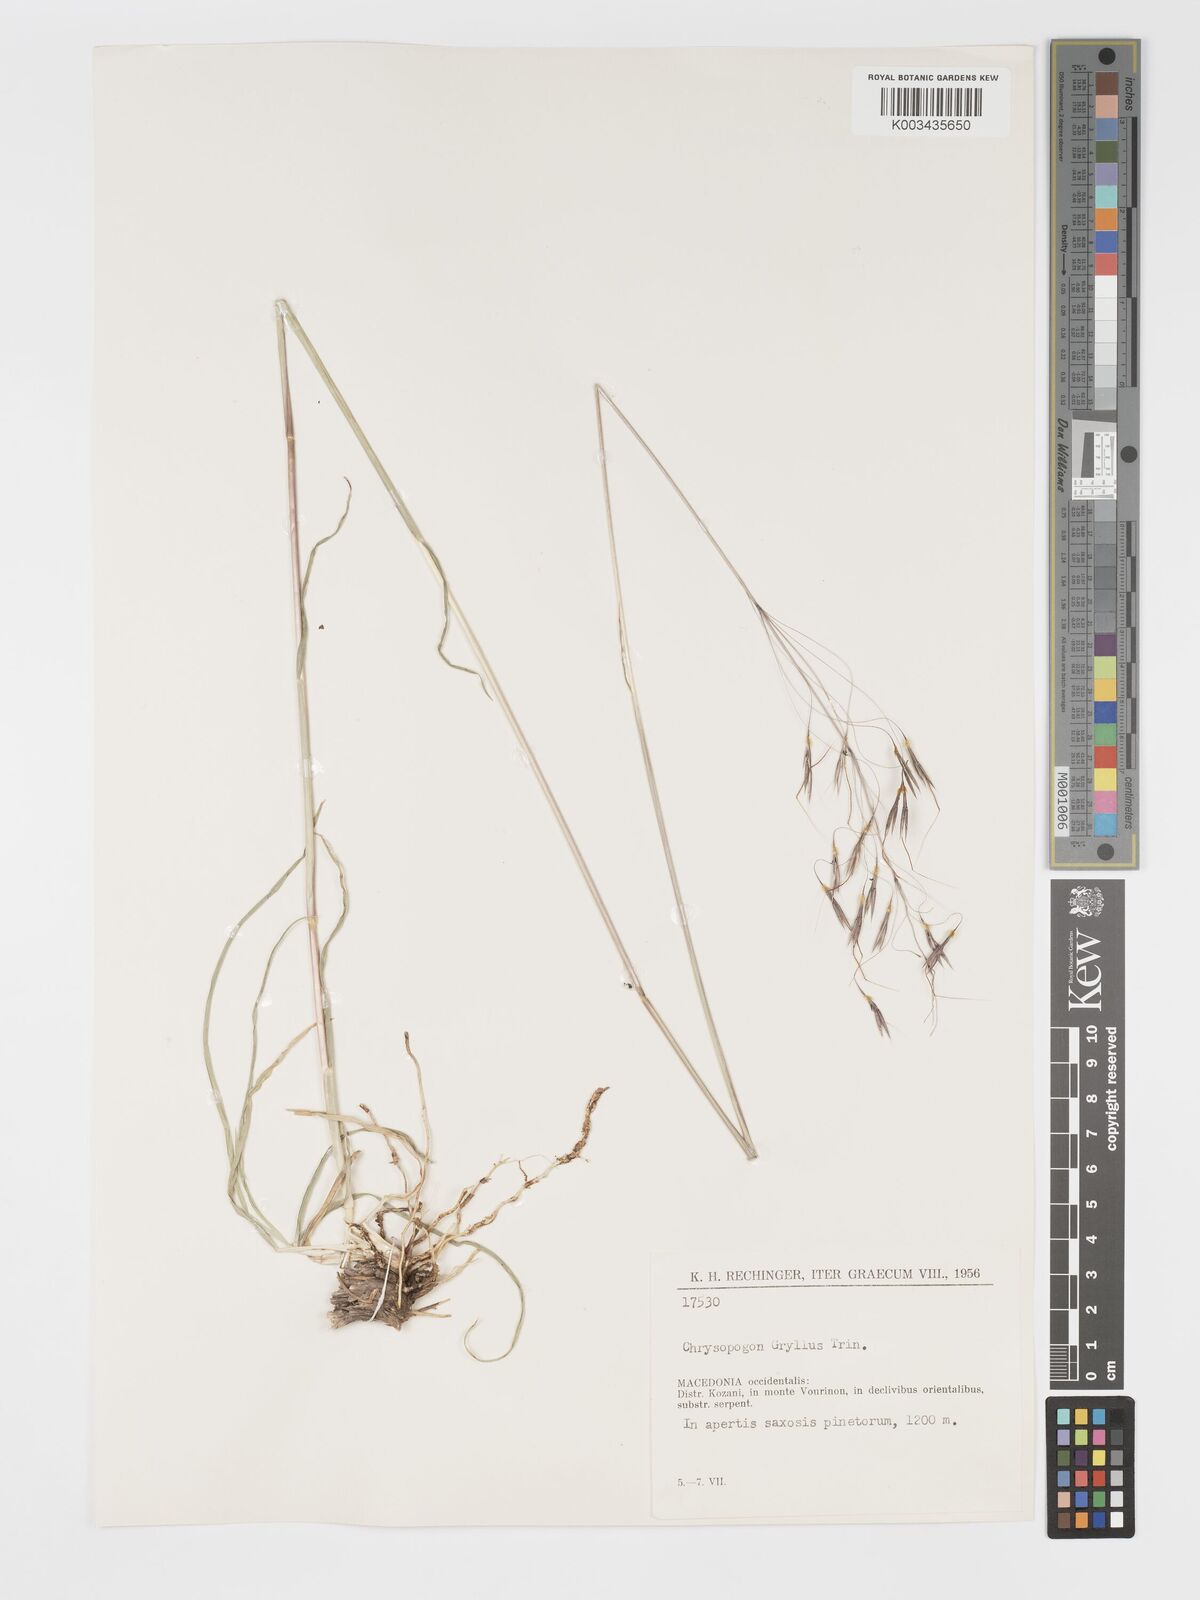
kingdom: Plantae
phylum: Tracheophyta
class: Liliopsida
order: Poales
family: Poaceae
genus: Chrysopogon
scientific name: Chrysopogon gryllus
